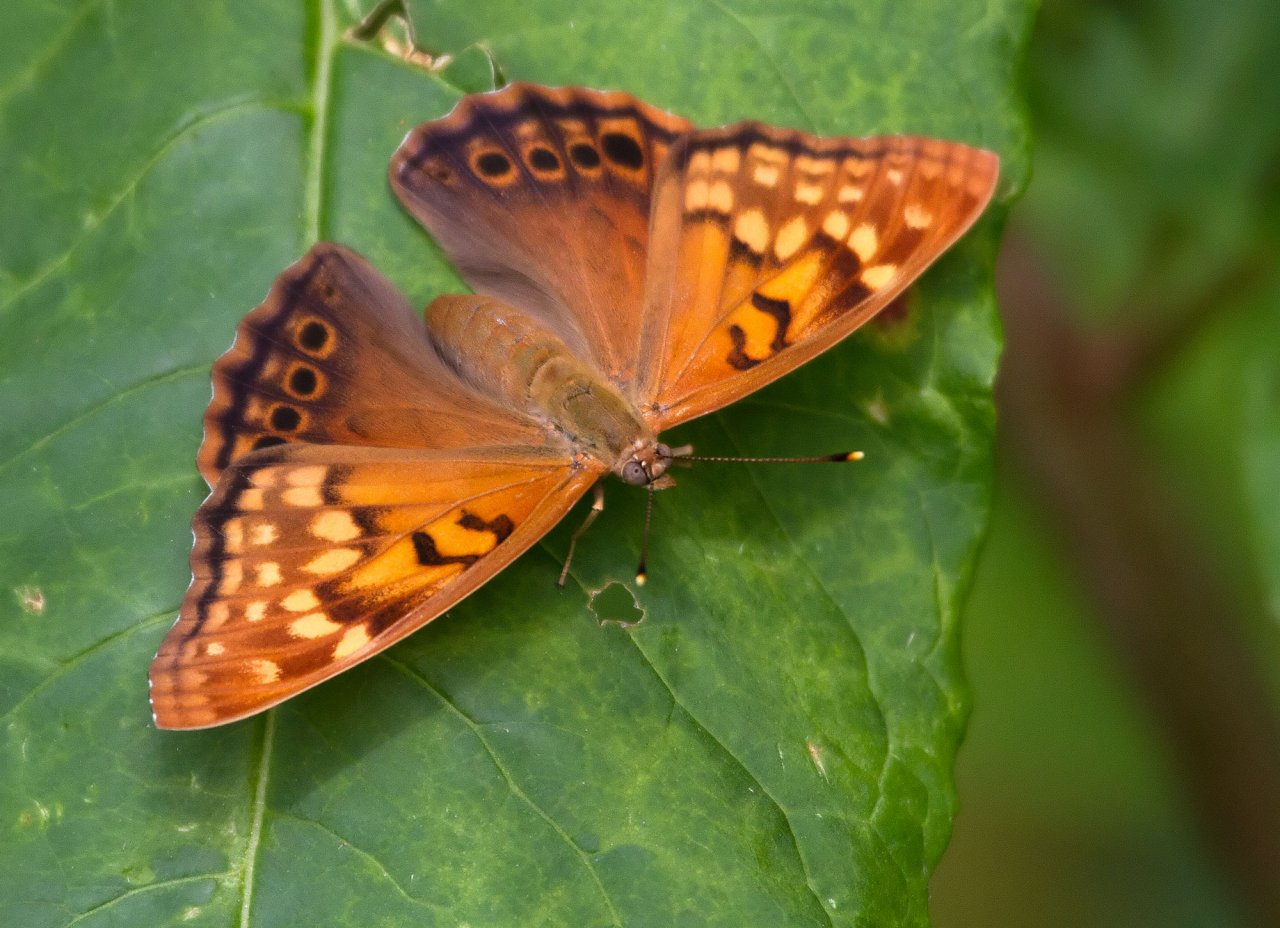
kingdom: Animalia
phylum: Arthropoda
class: Insecta
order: Lepidoptera
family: Nymphalidae
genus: Asterocampa
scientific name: Asterocampa clyton
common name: Tawny Emperor
